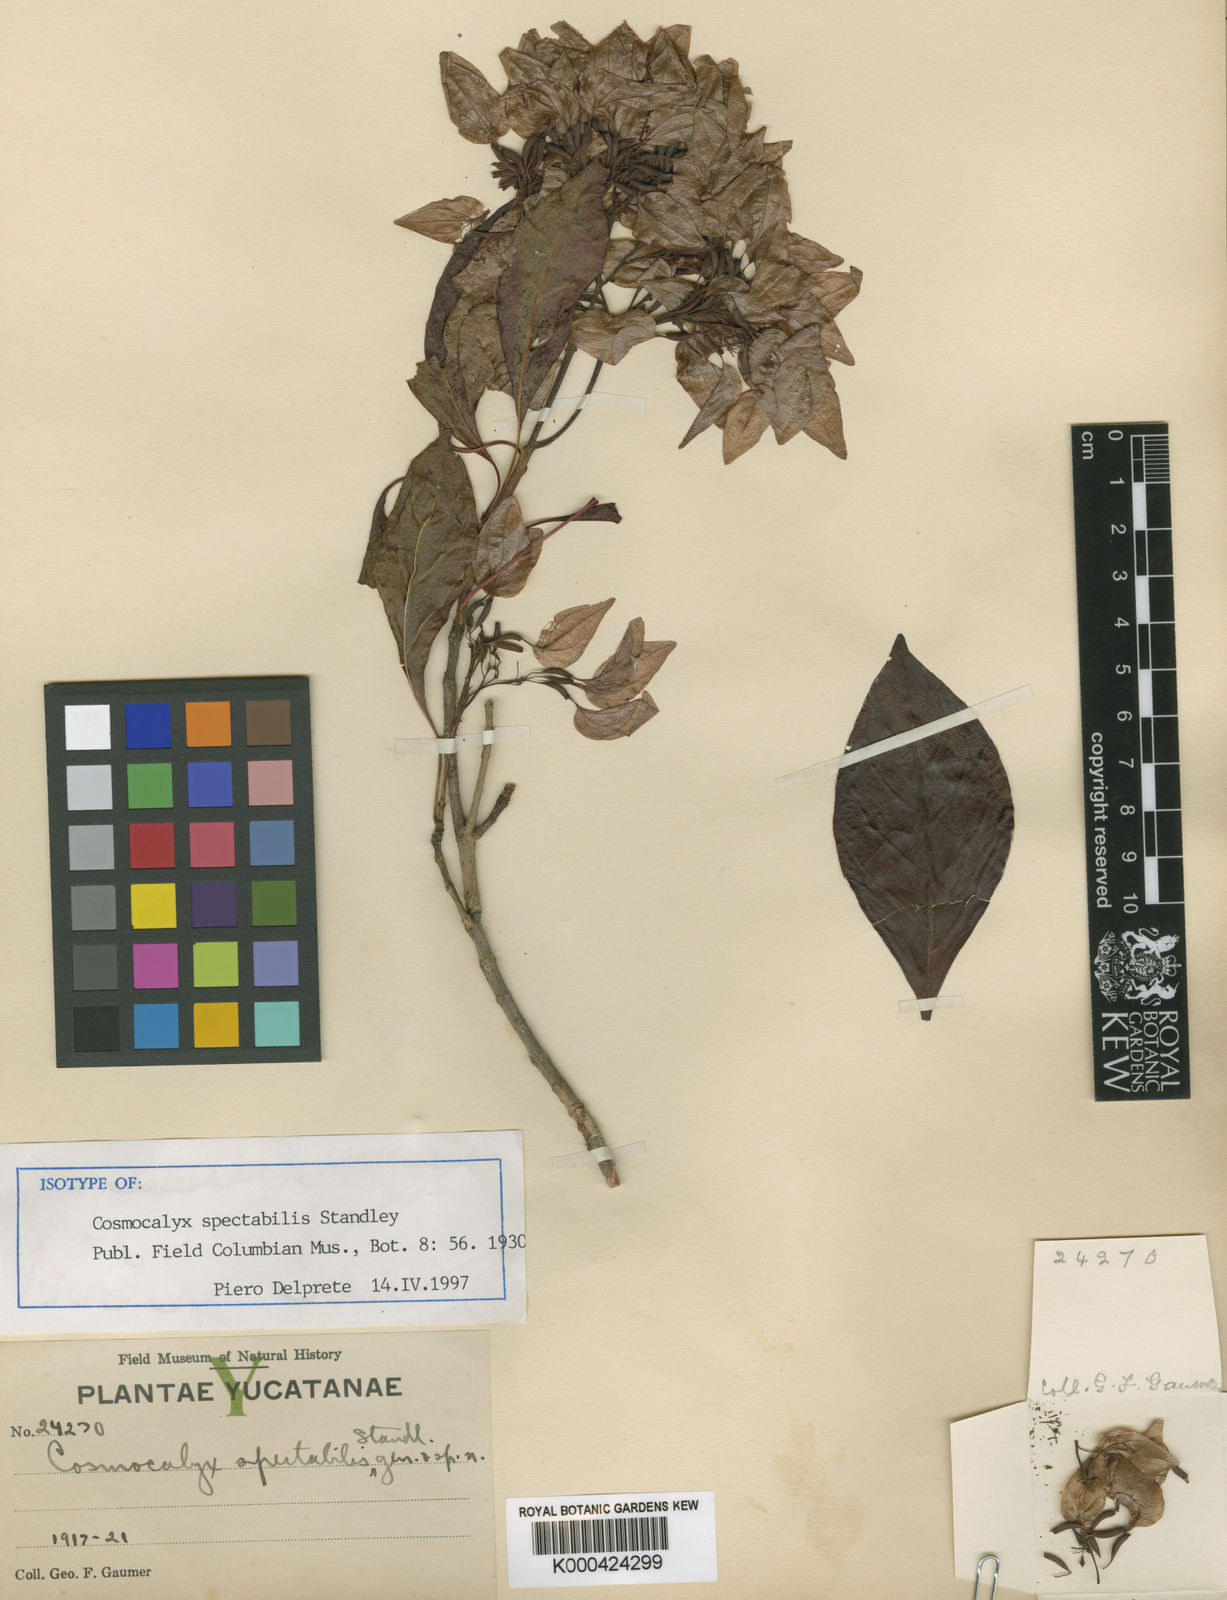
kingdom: Plantae
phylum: Tracheophyta
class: Magnoliopsida
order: Gentianales
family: Rubiaceae
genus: Cosmocalyx
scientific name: Cosmocalyx spectabilis
